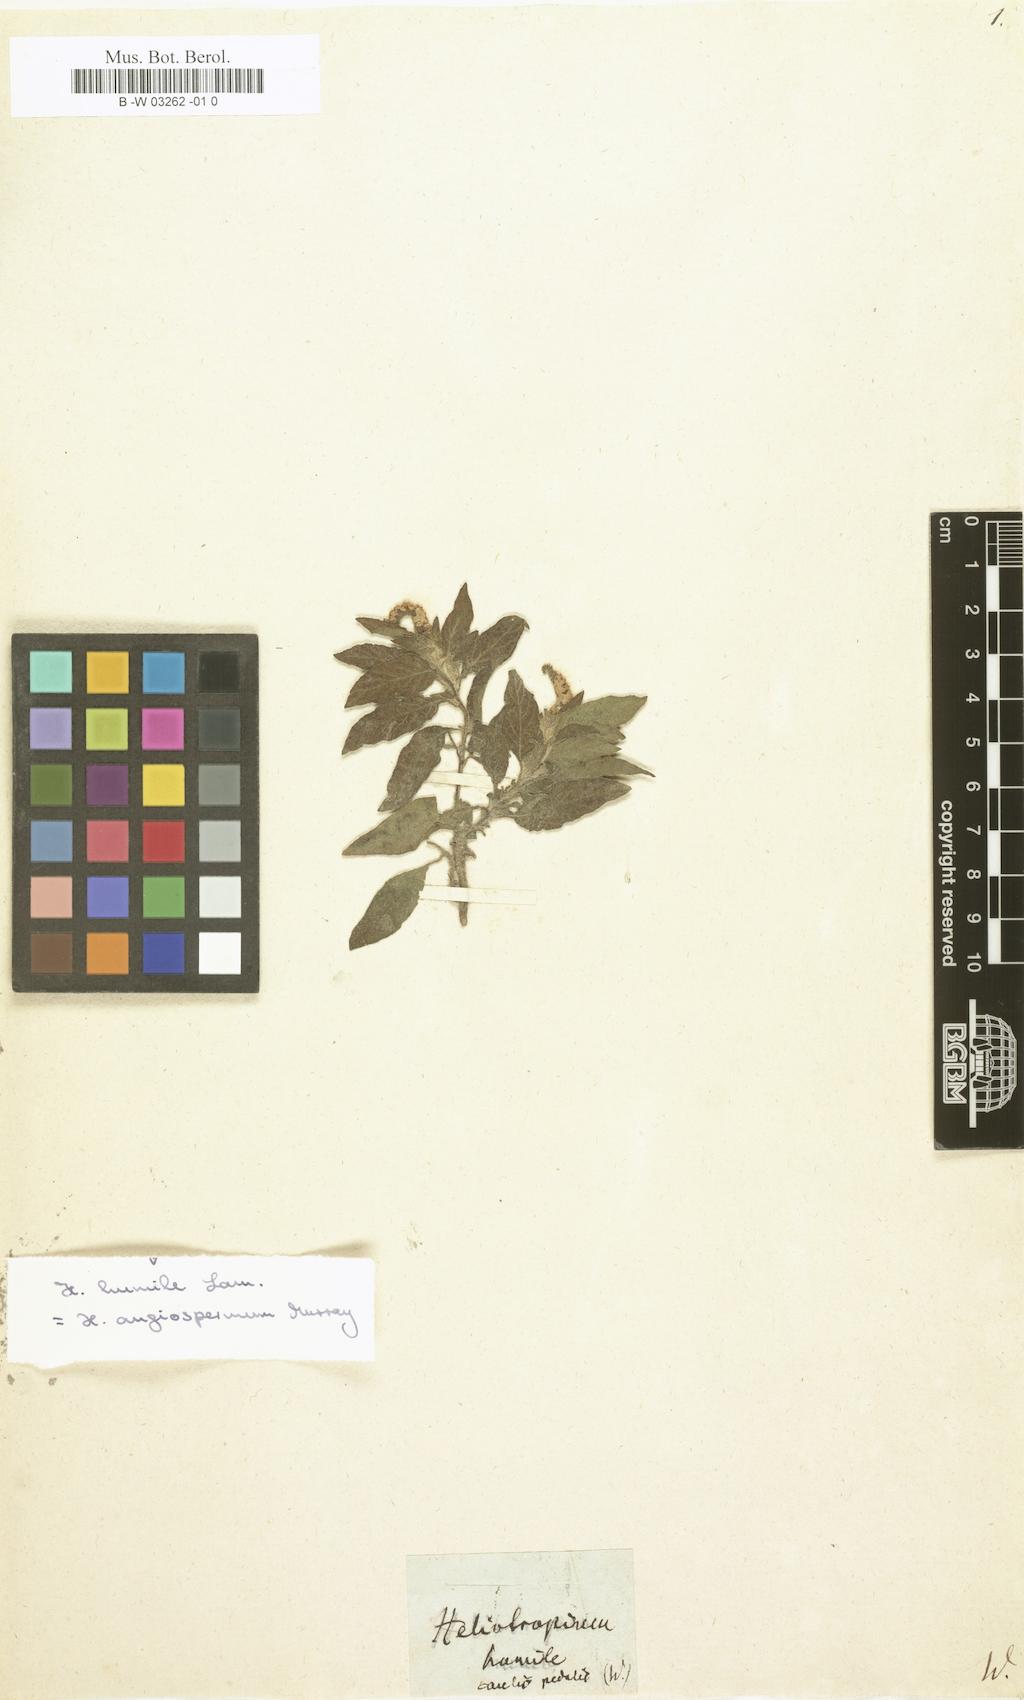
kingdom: Plantae
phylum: Tracheophyta
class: Magnoliopsida
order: Boraginales
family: Heliotropiaceae
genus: Euploca
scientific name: Euploca fruticosa
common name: Key west heliotrope
